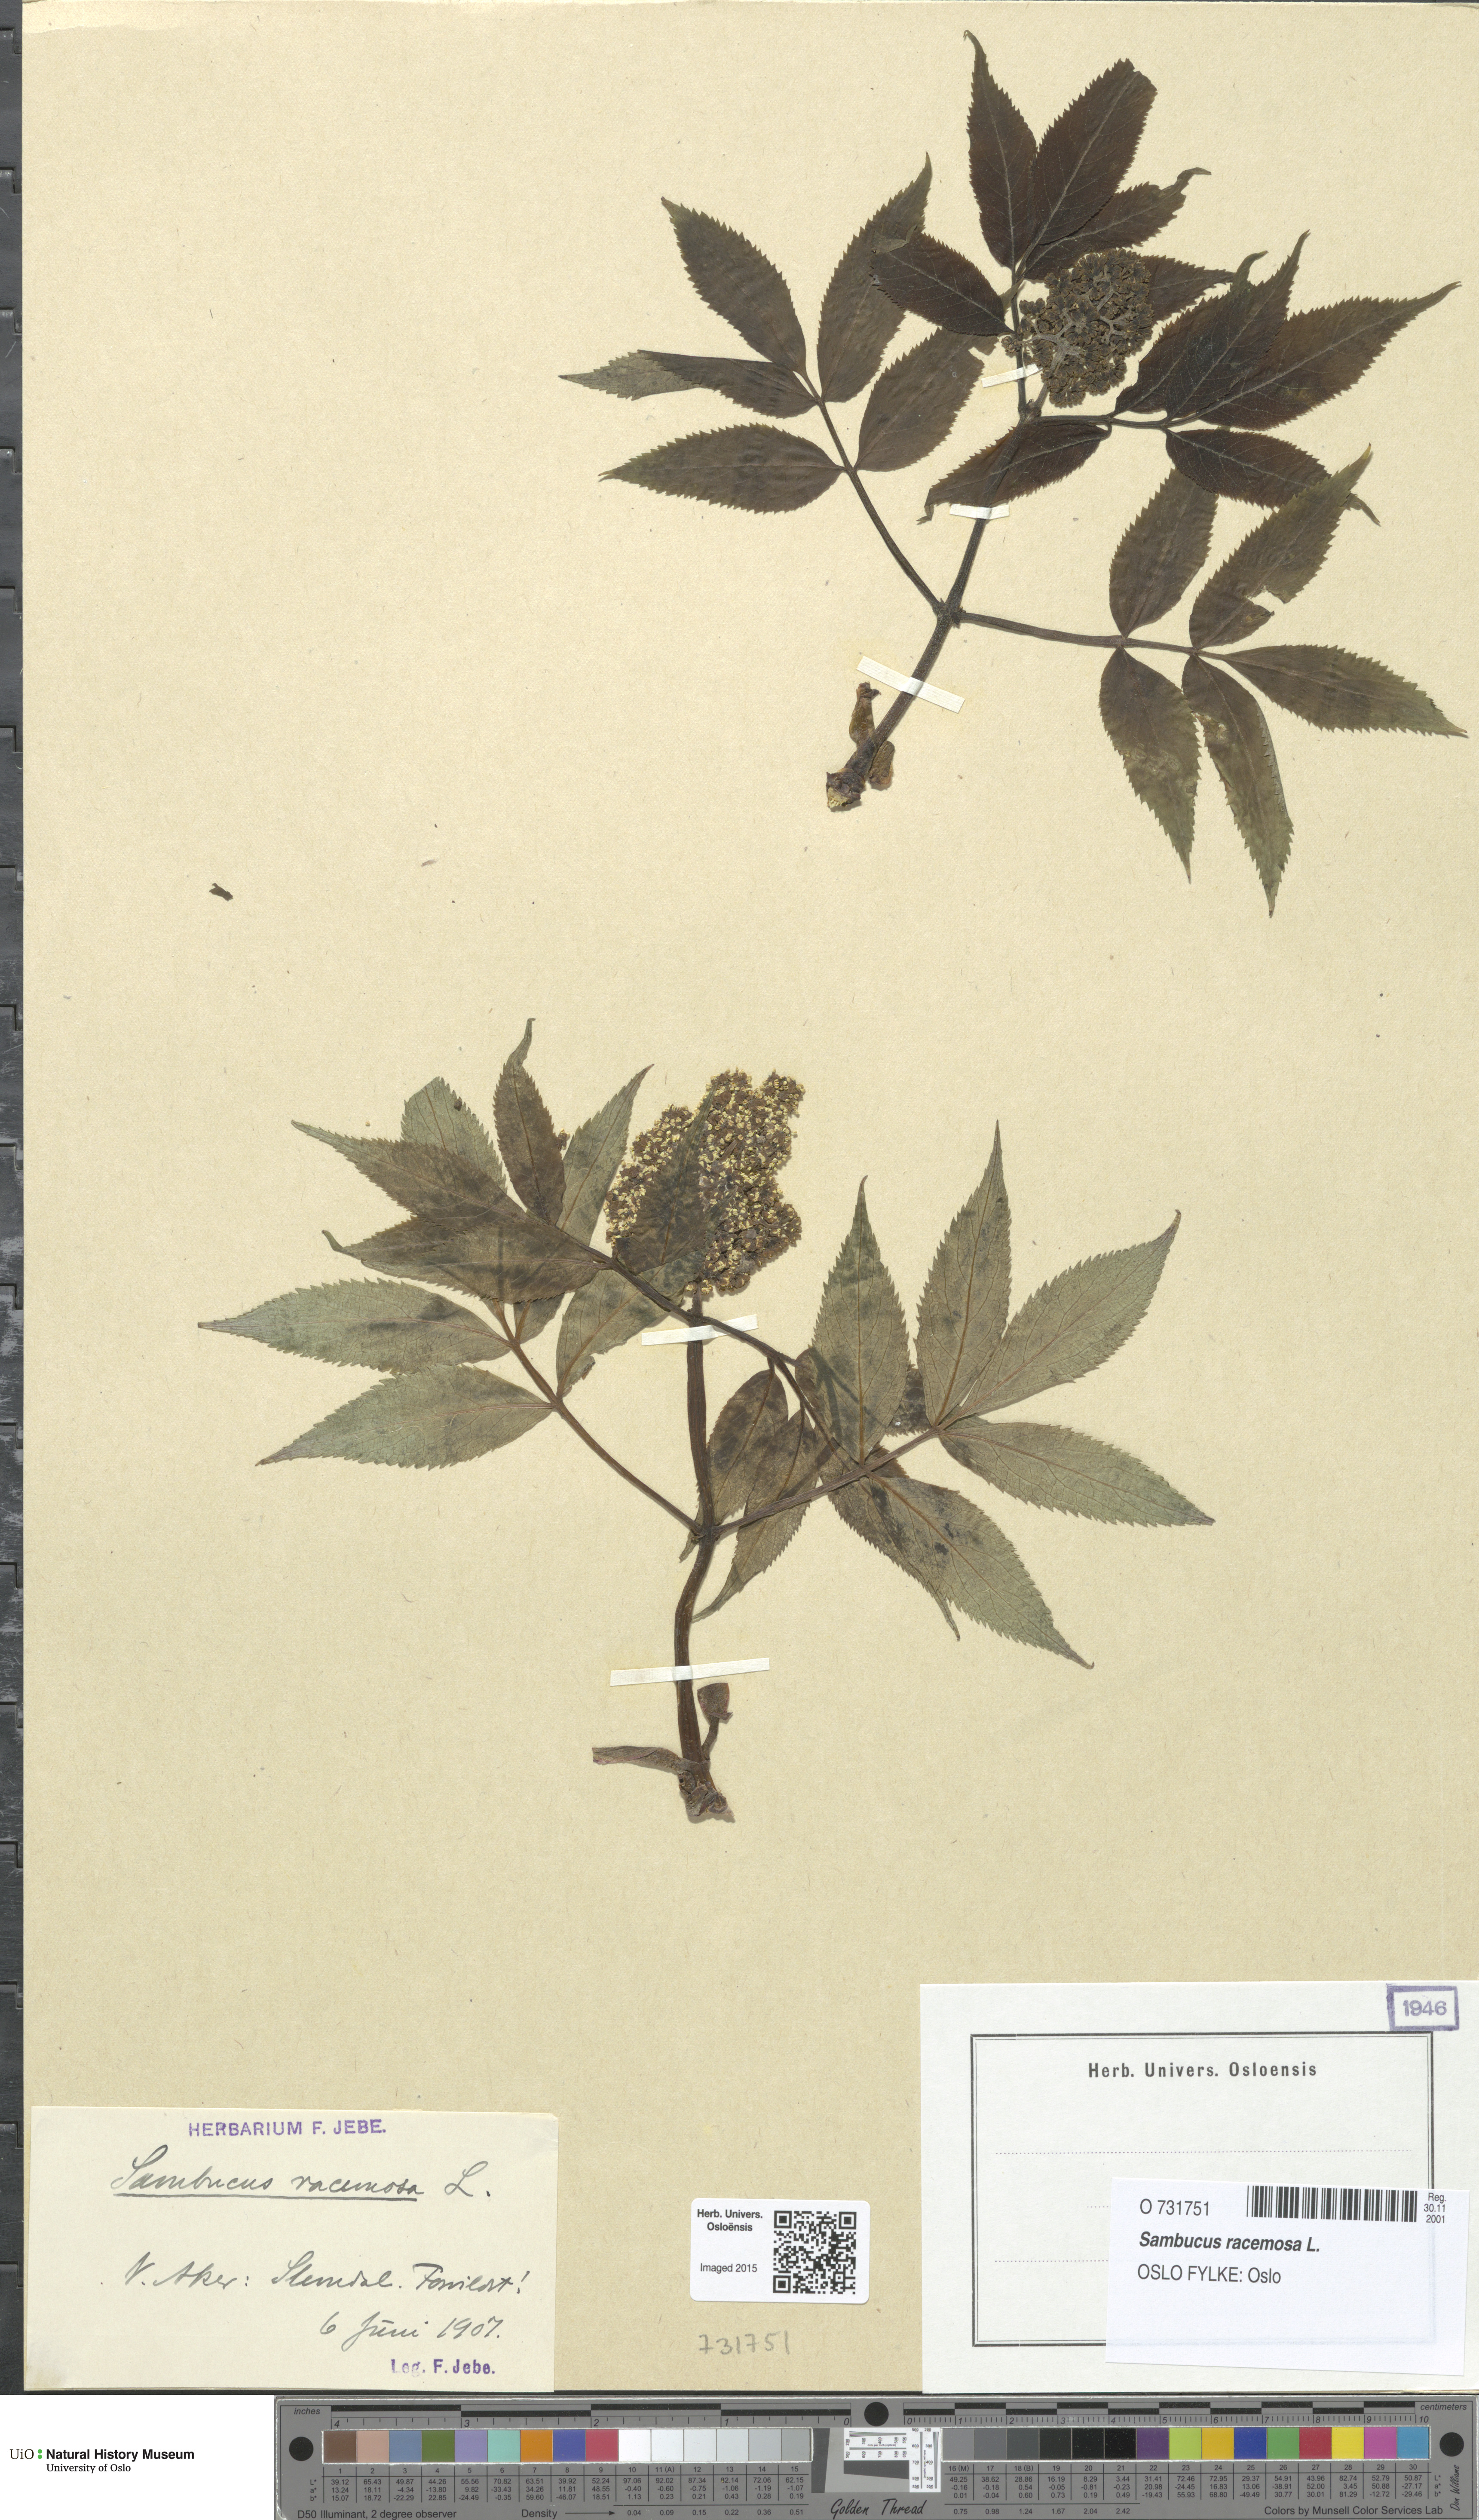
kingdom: Plantae
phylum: Tracheophyta
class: Magnoliopsida
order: Dipsacales
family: Viburnaceae
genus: Sambucus
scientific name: Sambucus racemosa
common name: Red-berried elder
